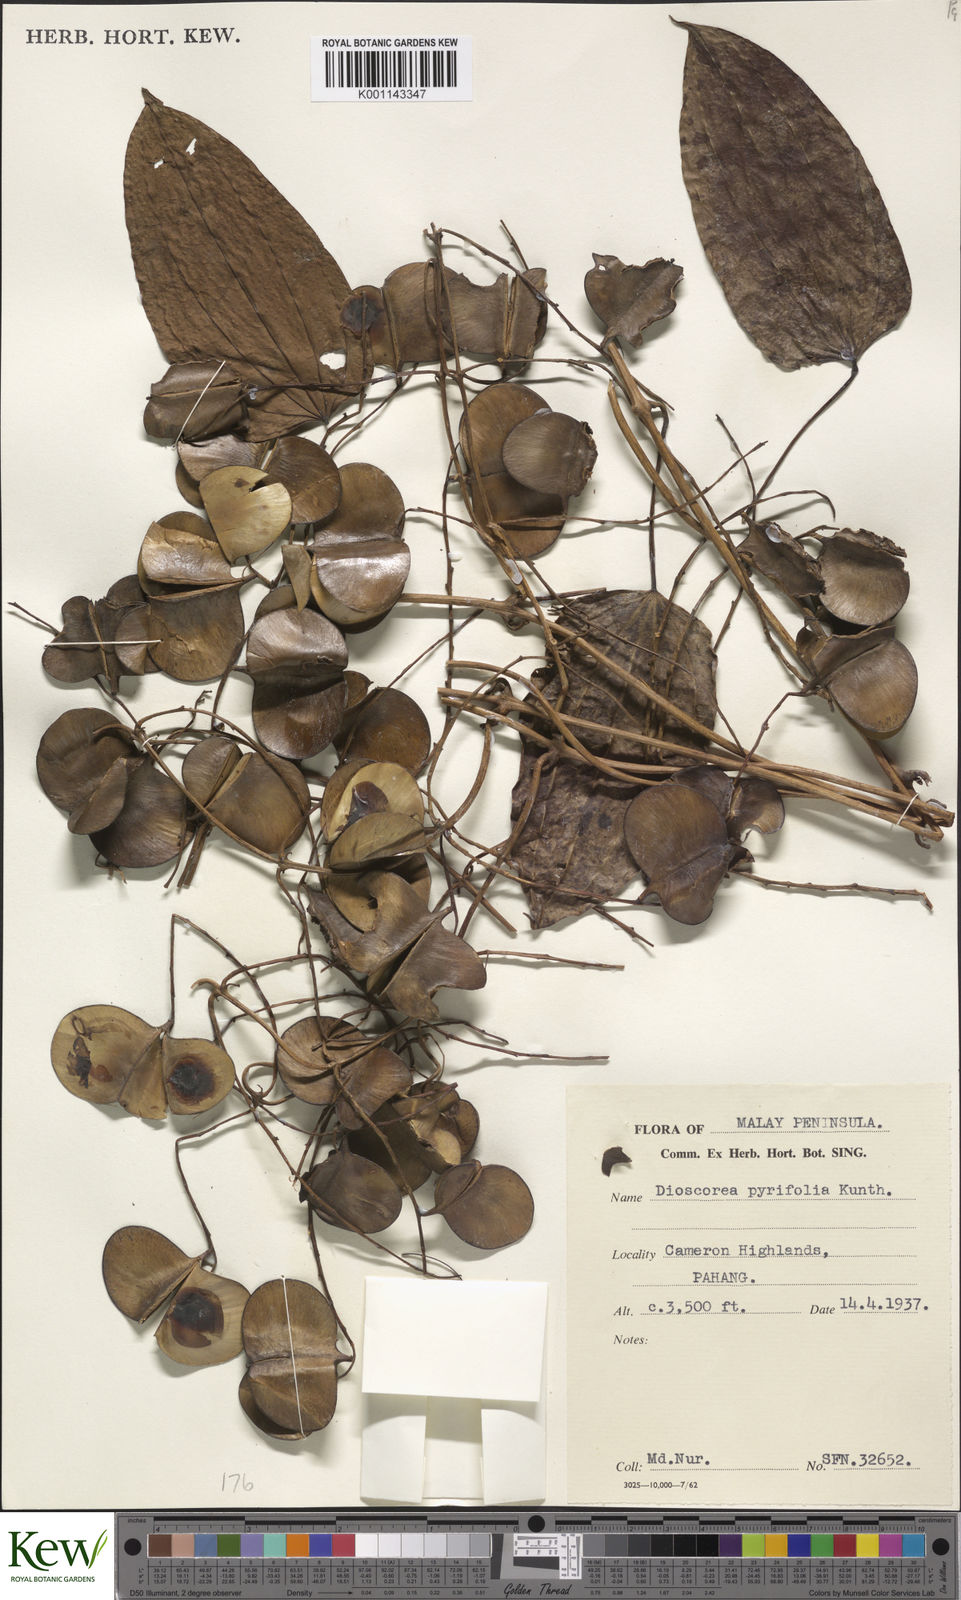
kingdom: Plantae
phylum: Tracheophyta
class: Liliopsida
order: Dioscoreales
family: Dioscoreaceae
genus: Dioscorea
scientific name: Dioscorea pyrifolia
